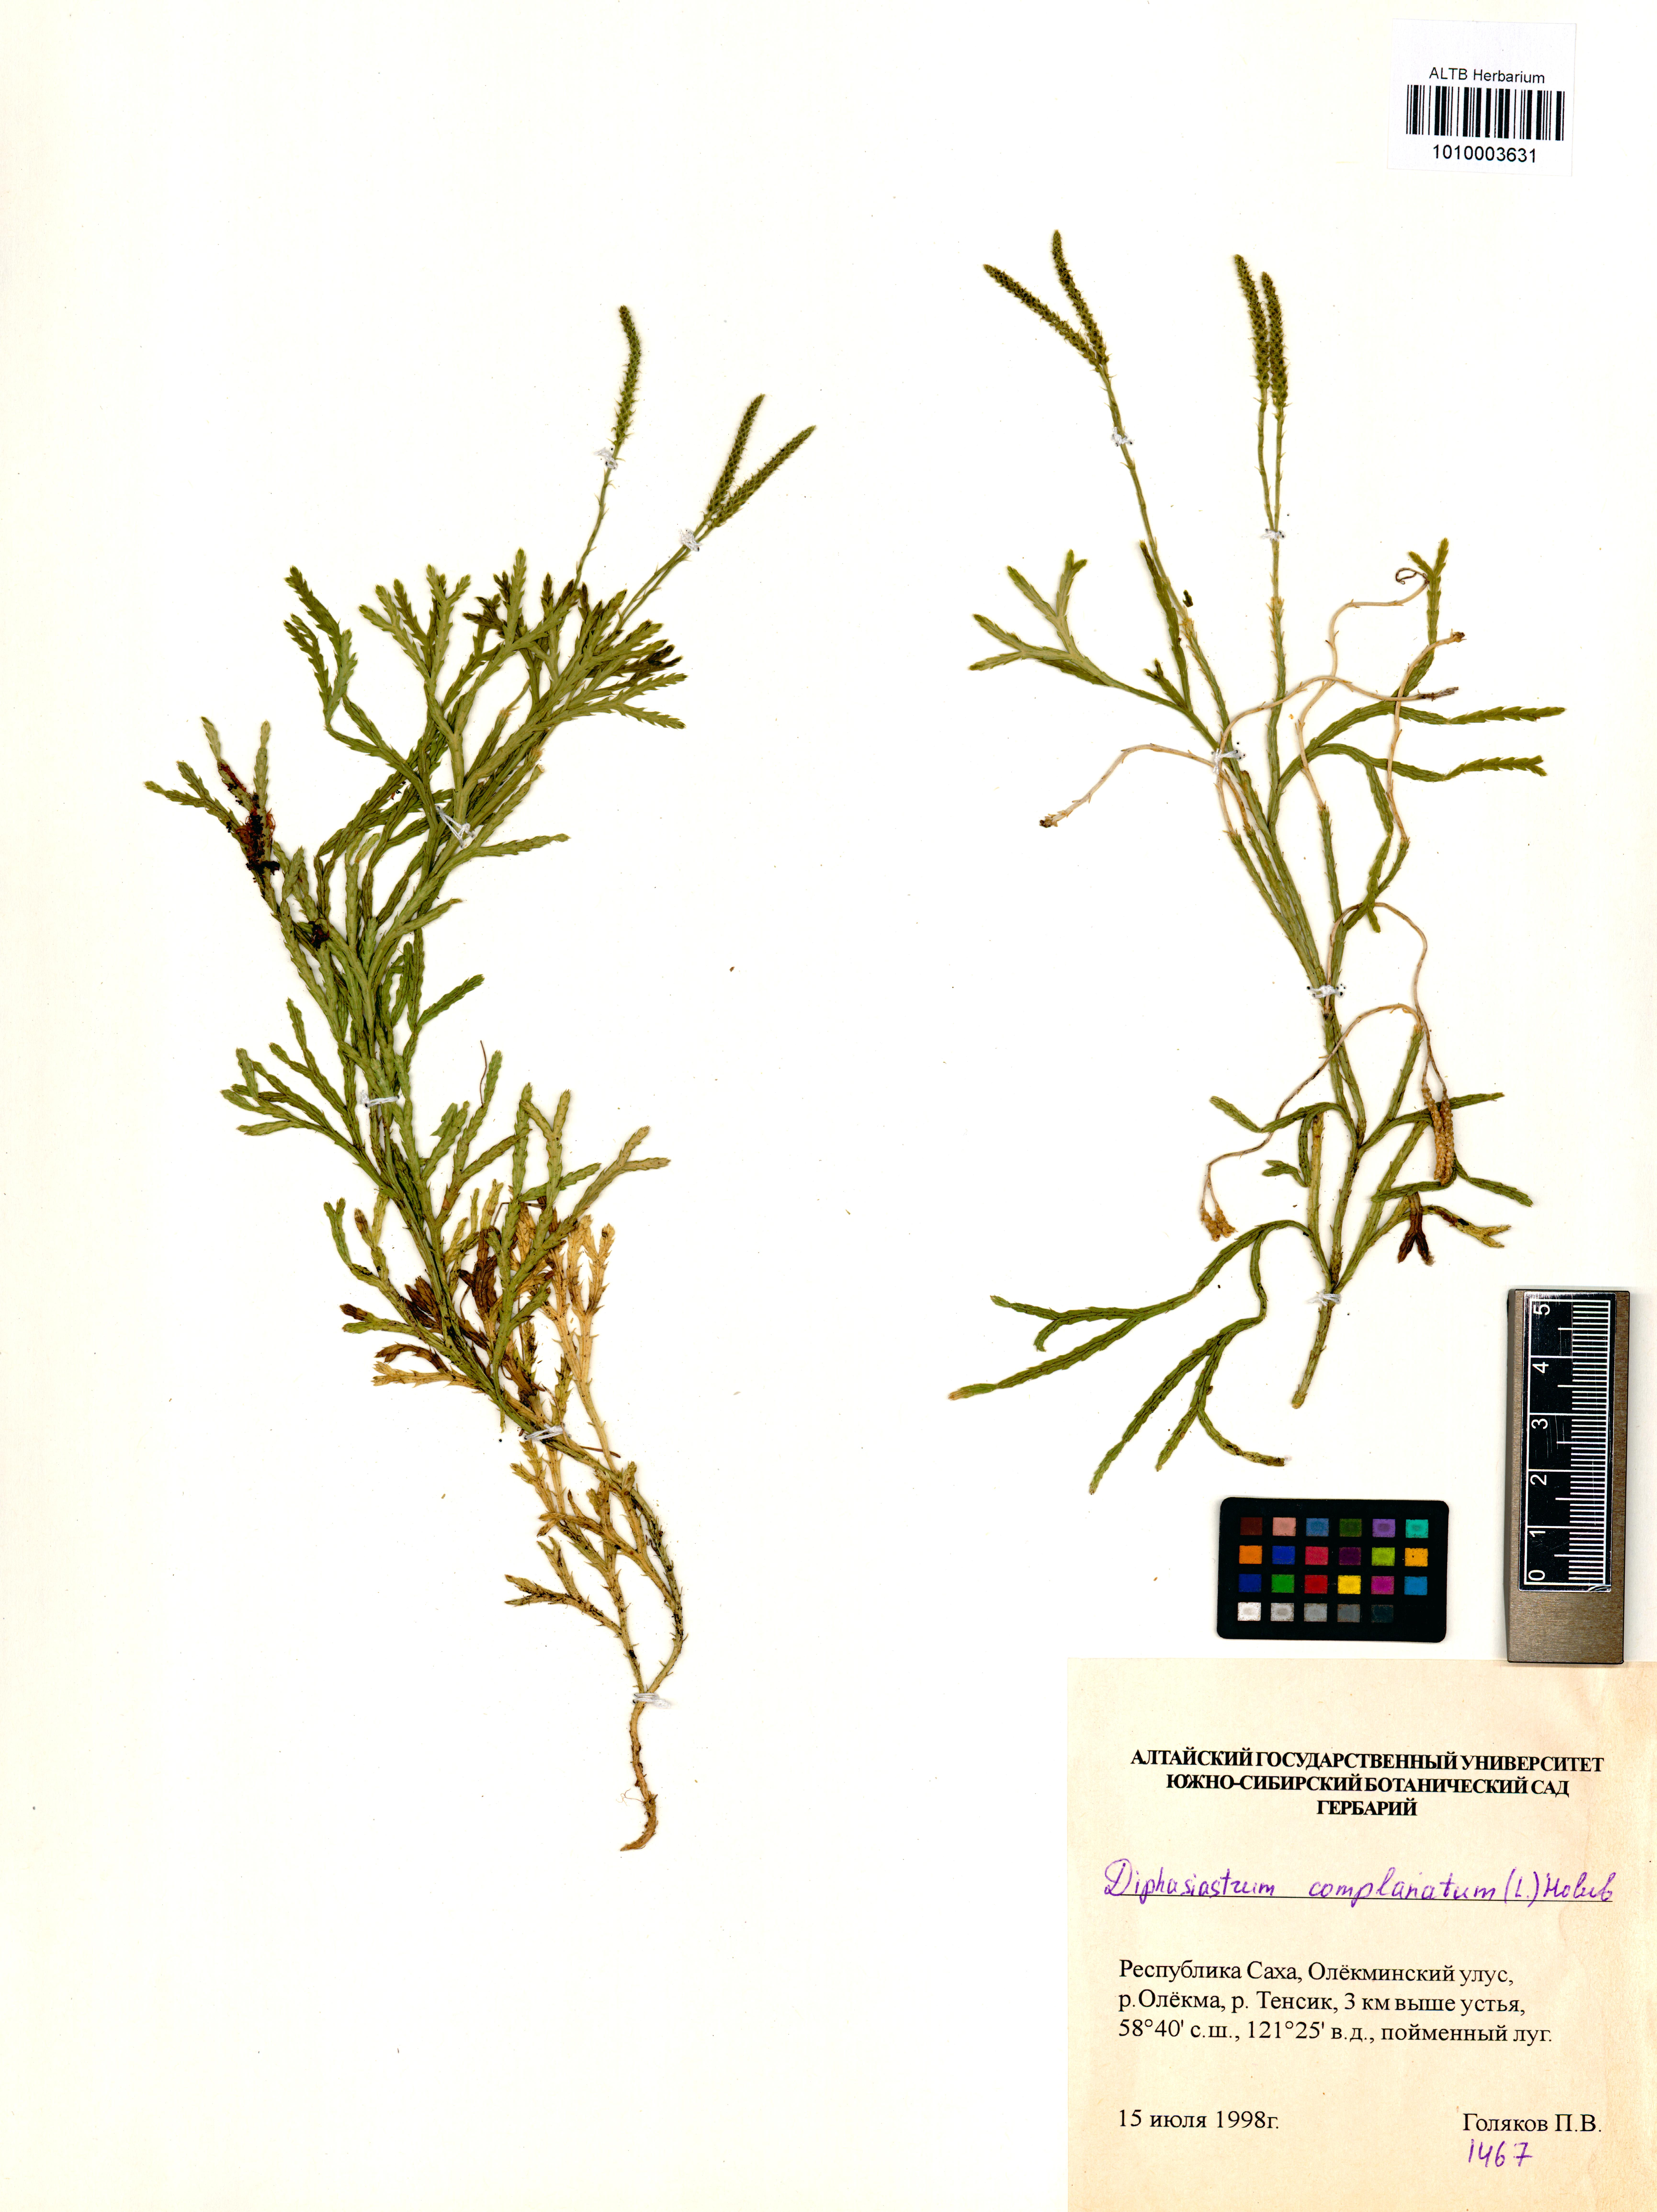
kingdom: Plantae
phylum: Tracheophyta
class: Lycopodiopsida
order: Lycopodiales
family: Lycopodiaceae
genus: Diphasiastrum
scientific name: Diphasiastrum complanatum
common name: Northern running-pine
